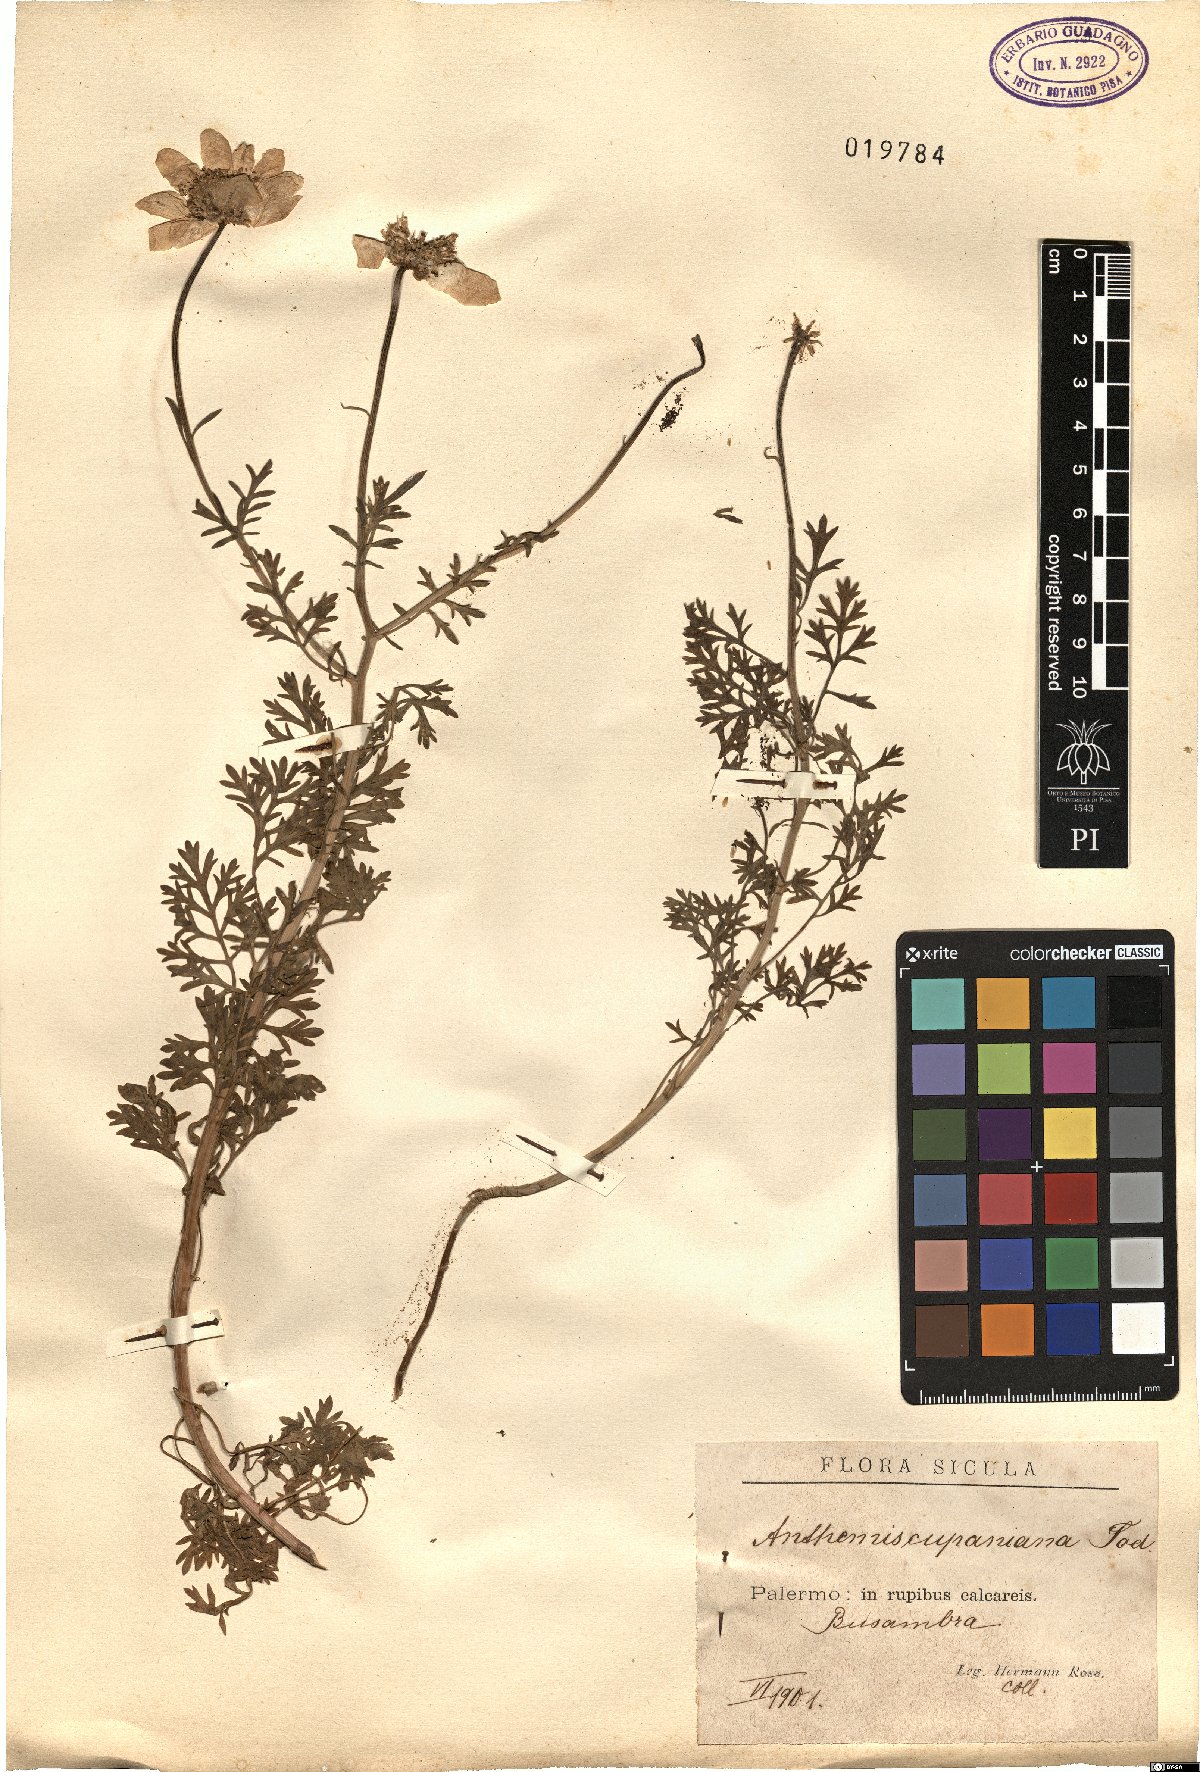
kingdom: Plantae
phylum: Tracheophyta
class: Magnoliopsida
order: Asterales
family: Asteraceae
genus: Anthemis
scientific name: Anthemis cupaniana
